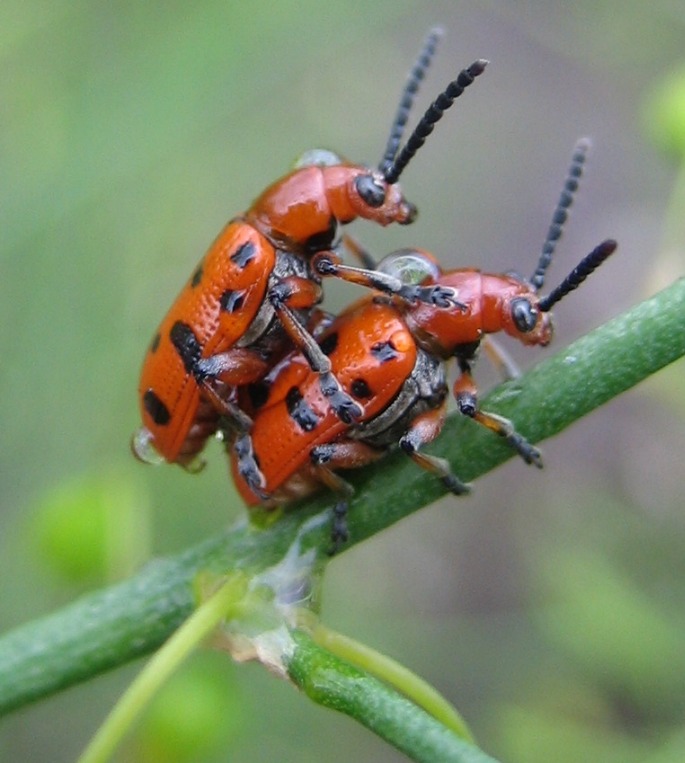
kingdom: Animalia
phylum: Arthropoda
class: Insecta
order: Coleoptera
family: Chrysomelidae
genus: Crioceris
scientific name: Crioceris duodecimpunctata
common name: Tolvplettet aspargesbille
